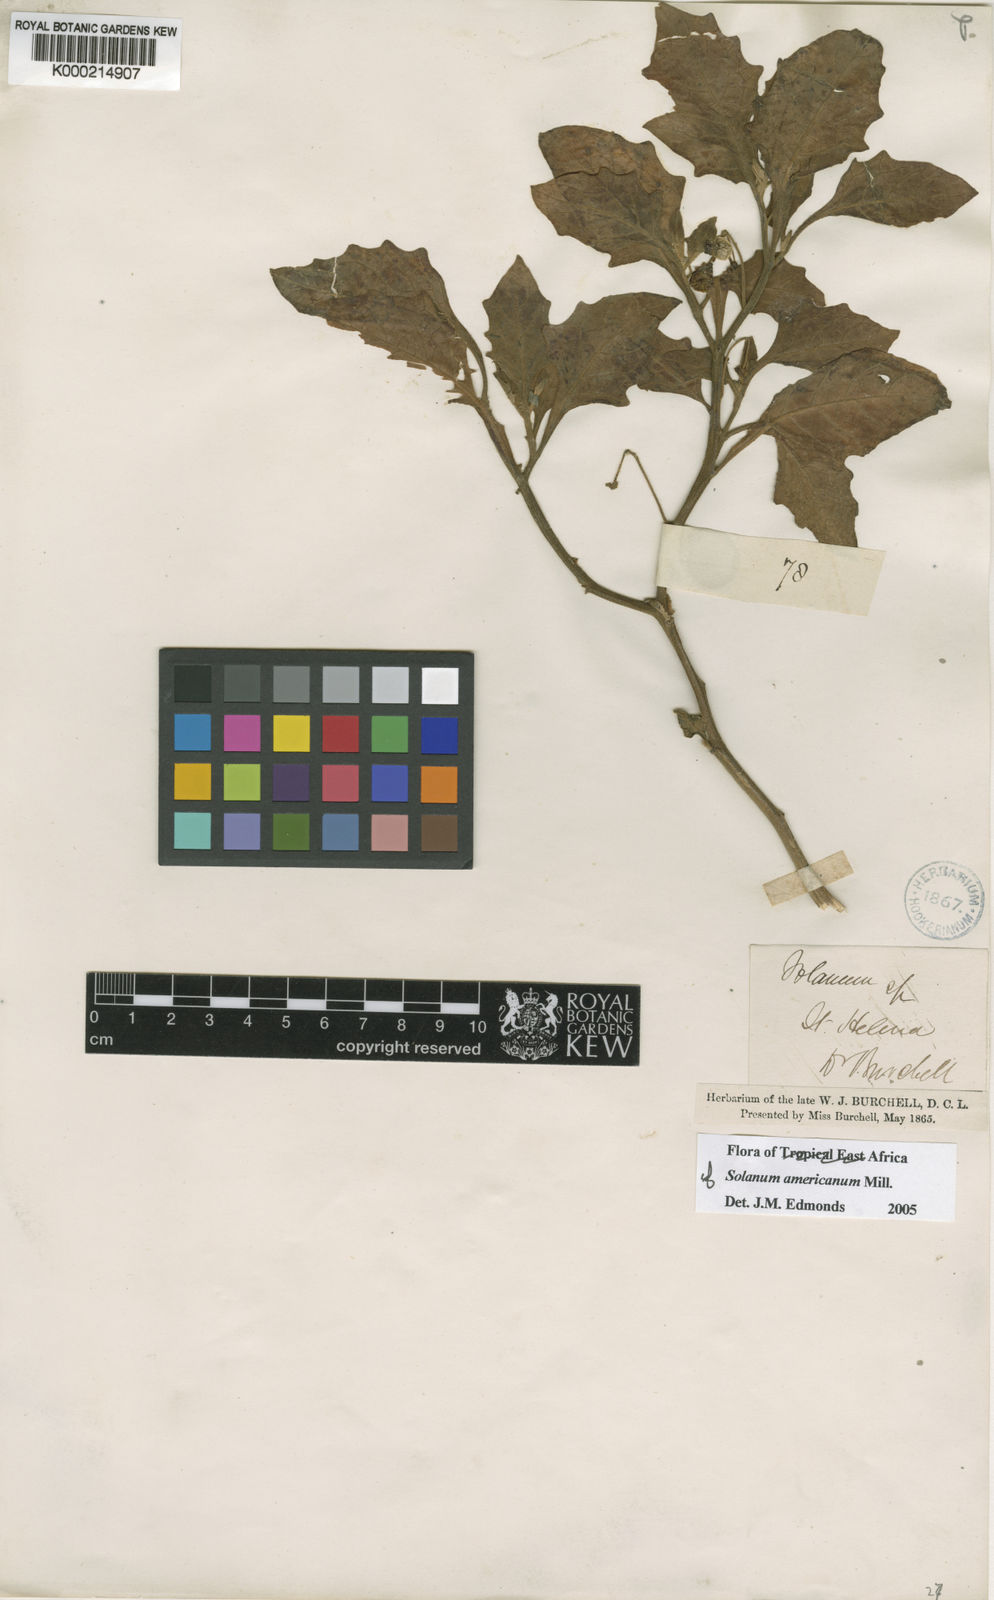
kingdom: Plantae
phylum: Tracheophyta
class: Magnoliopsida
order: Solanales
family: Solanaceae
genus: Solanum
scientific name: Solanum villosum
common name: Red nightshade
